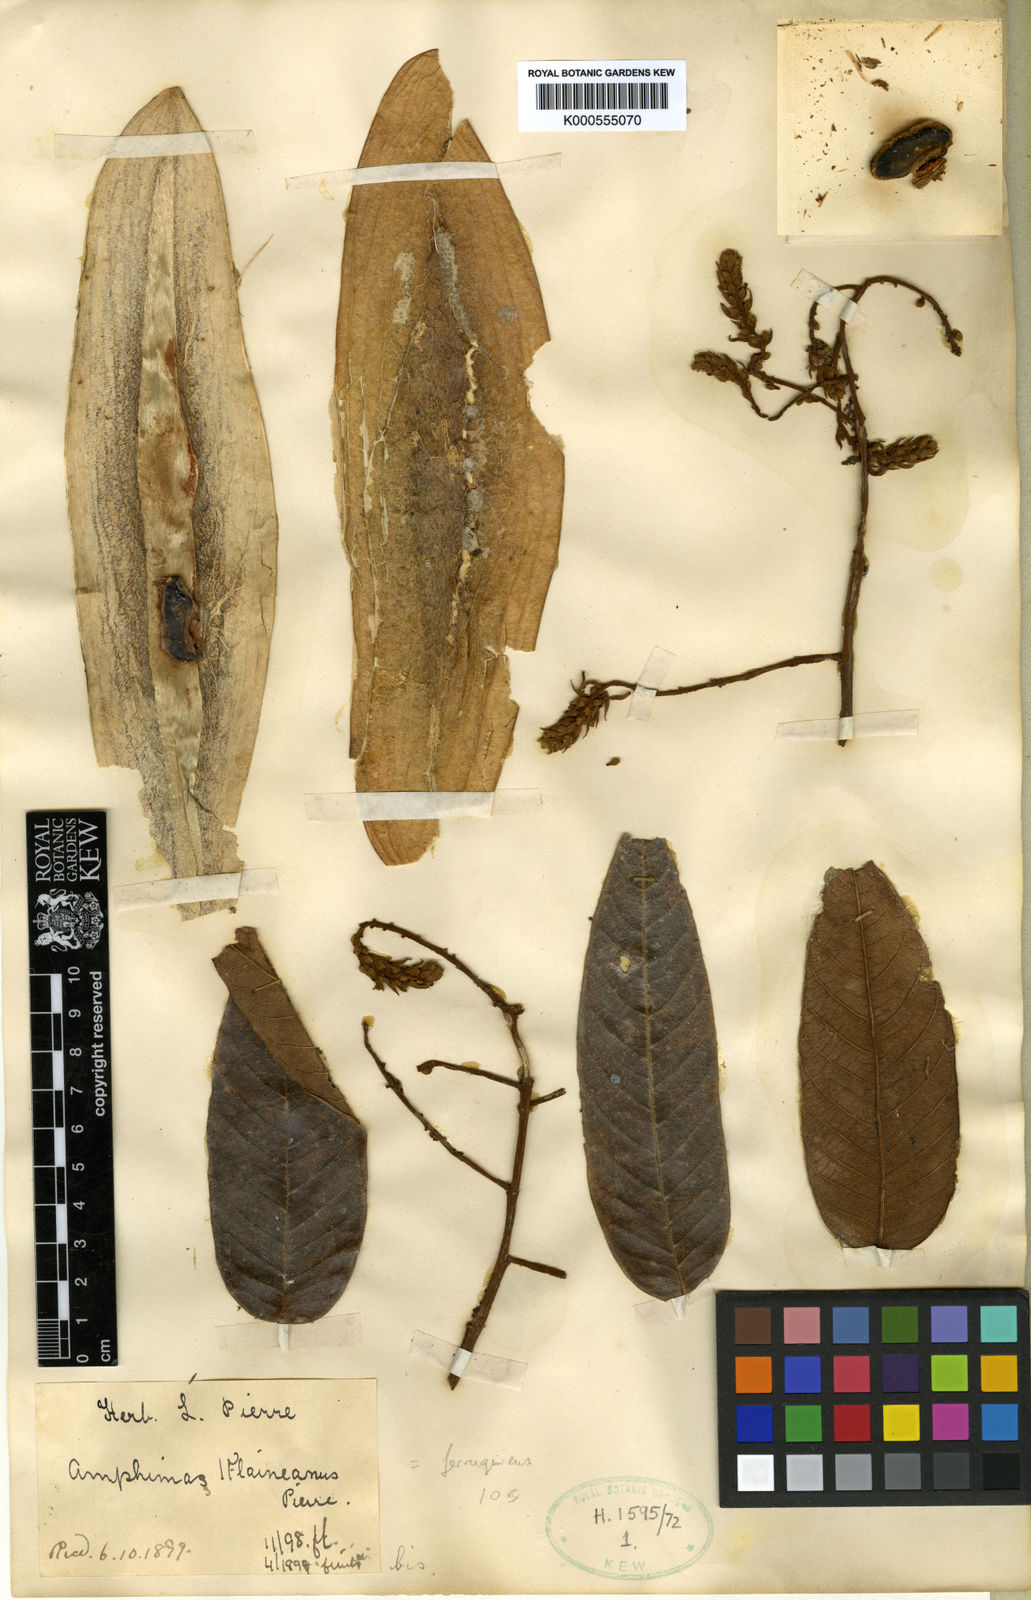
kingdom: Plantae
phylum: Tracheophyta
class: Magnoliopsida
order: Fabales
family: Fabaceae
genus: Amphimas
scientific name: Amphimas
